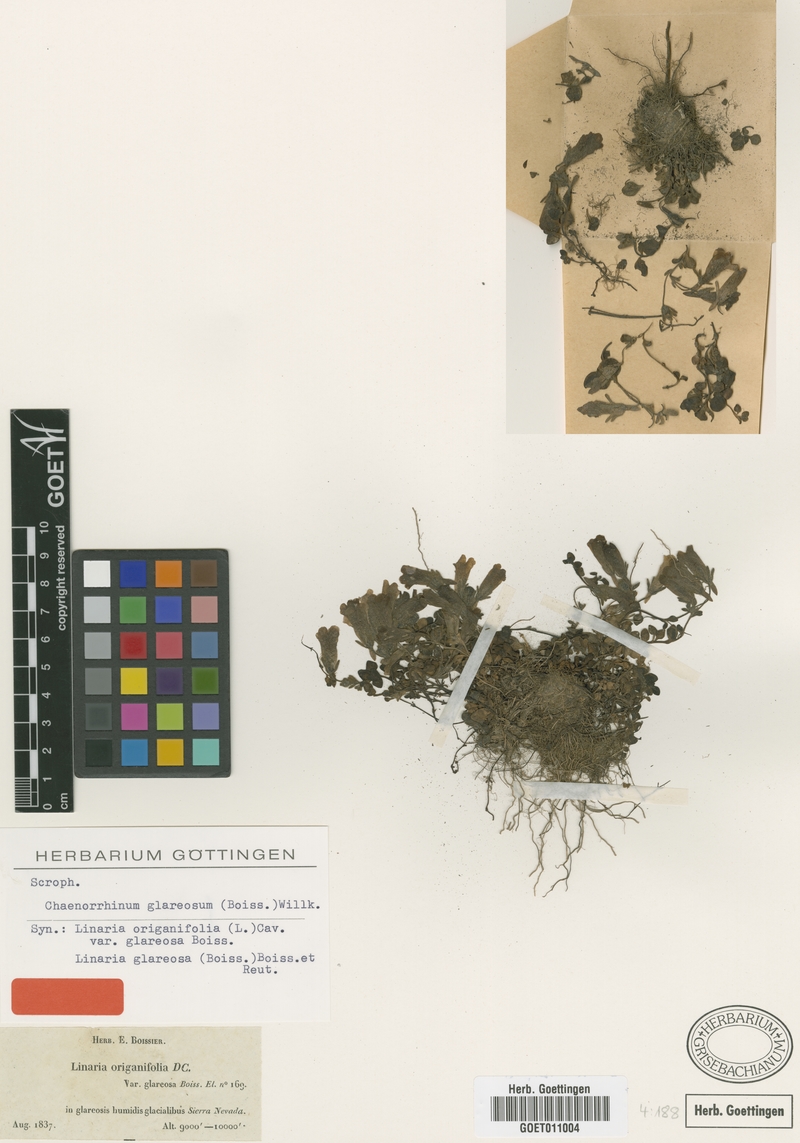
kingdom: Plantae
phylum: Tracheophyta
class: Magnoliopsida
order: Lamiales
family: Plantaginaceae
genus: Chaenorhinum
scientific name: Chaenorhinum glareosum
